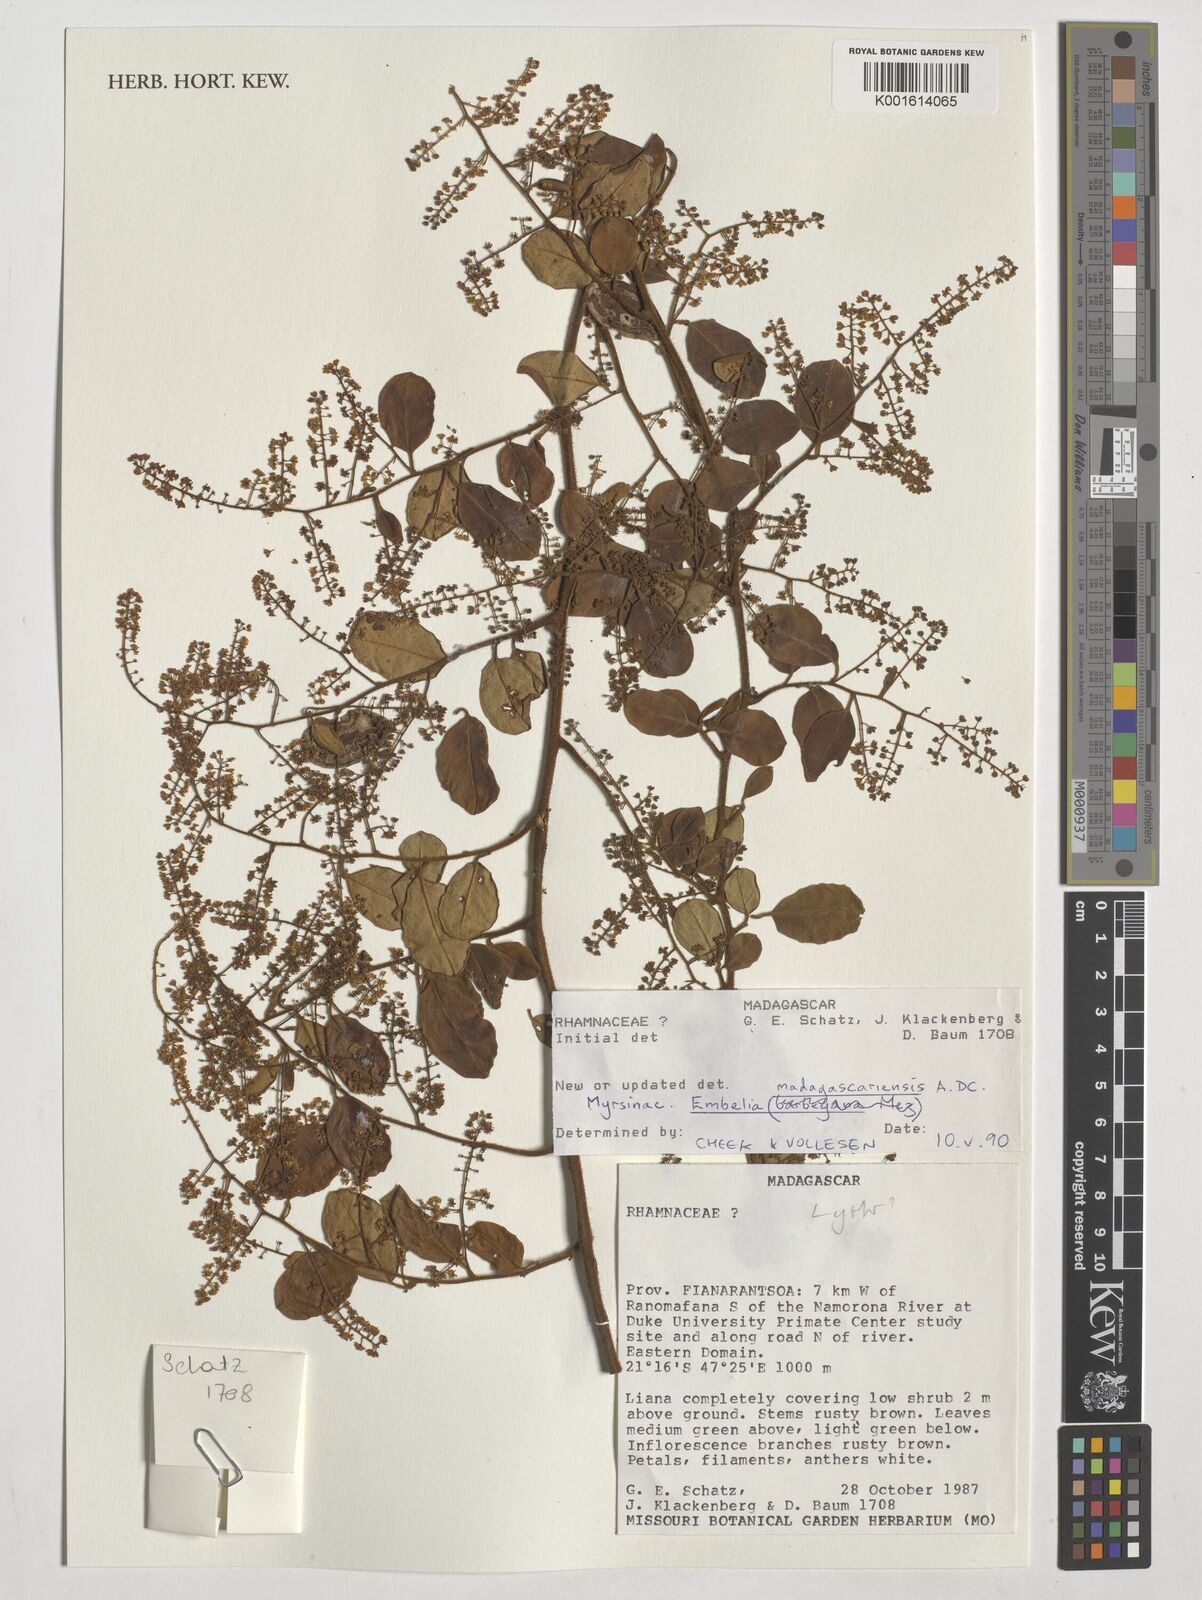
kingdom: Plantae
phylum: Tracheophyta
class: Magnoliopsida
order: Ericales
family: Primulaceae
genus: Embelia
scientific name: Embelia madagascariensis
